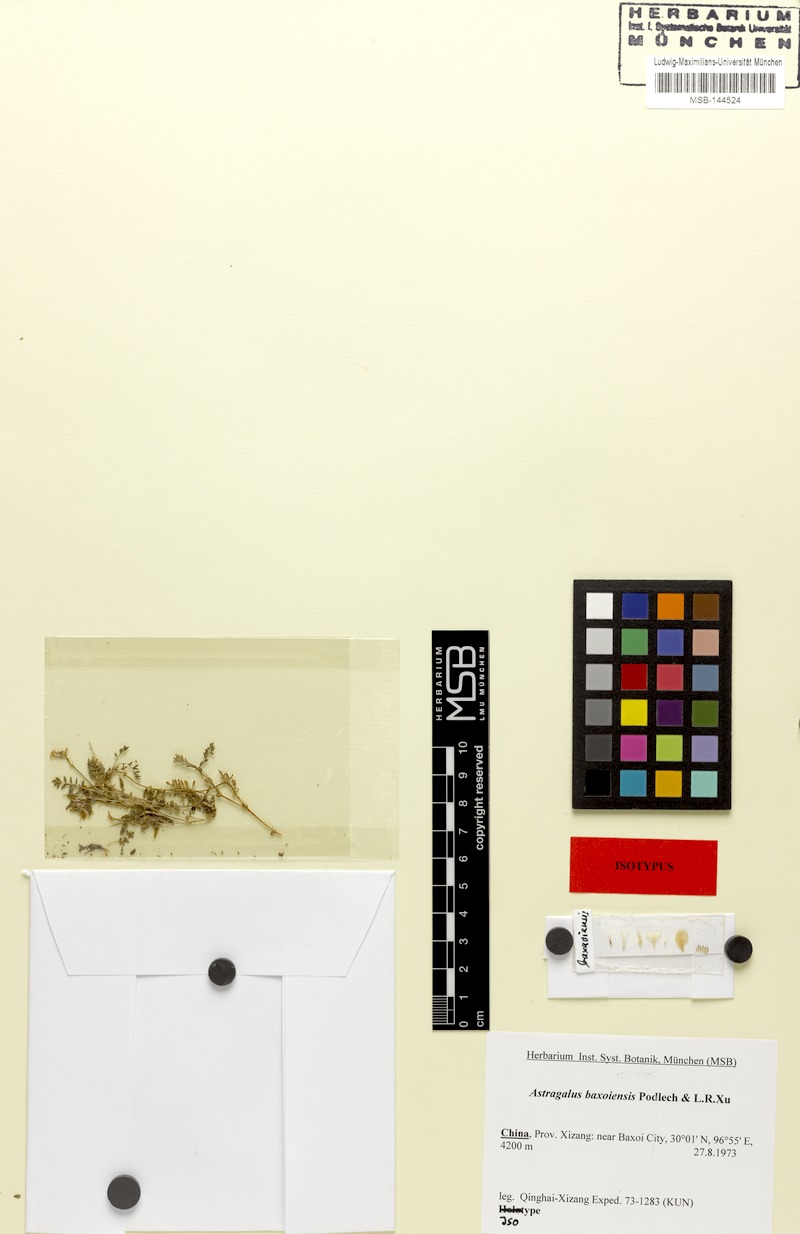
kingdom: Plantae
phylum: Tracheophyta
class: Magnoliopsida
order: Fabales
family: Fabaceae
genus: Astragalus
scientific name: Astragalus baxoiensis
